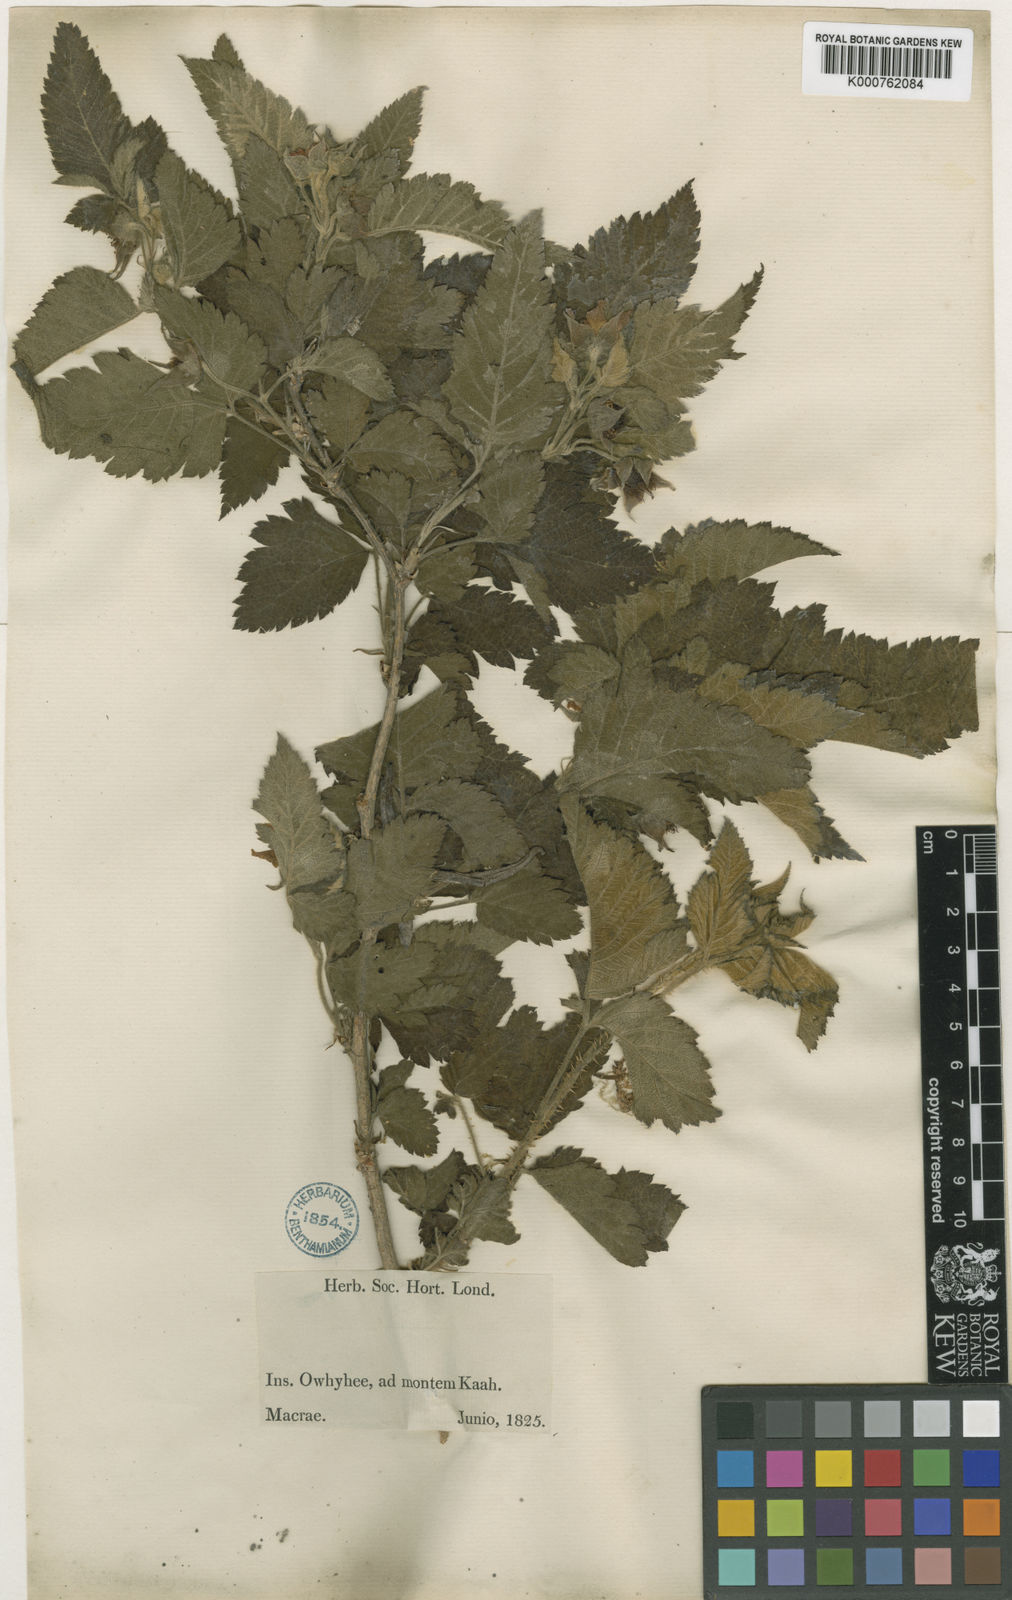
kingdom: Plantae
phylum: Tracheophyta
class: Magnoliopsida
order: Rosales
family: Rosaceae
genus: Rubus
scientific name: Rubus macraei
